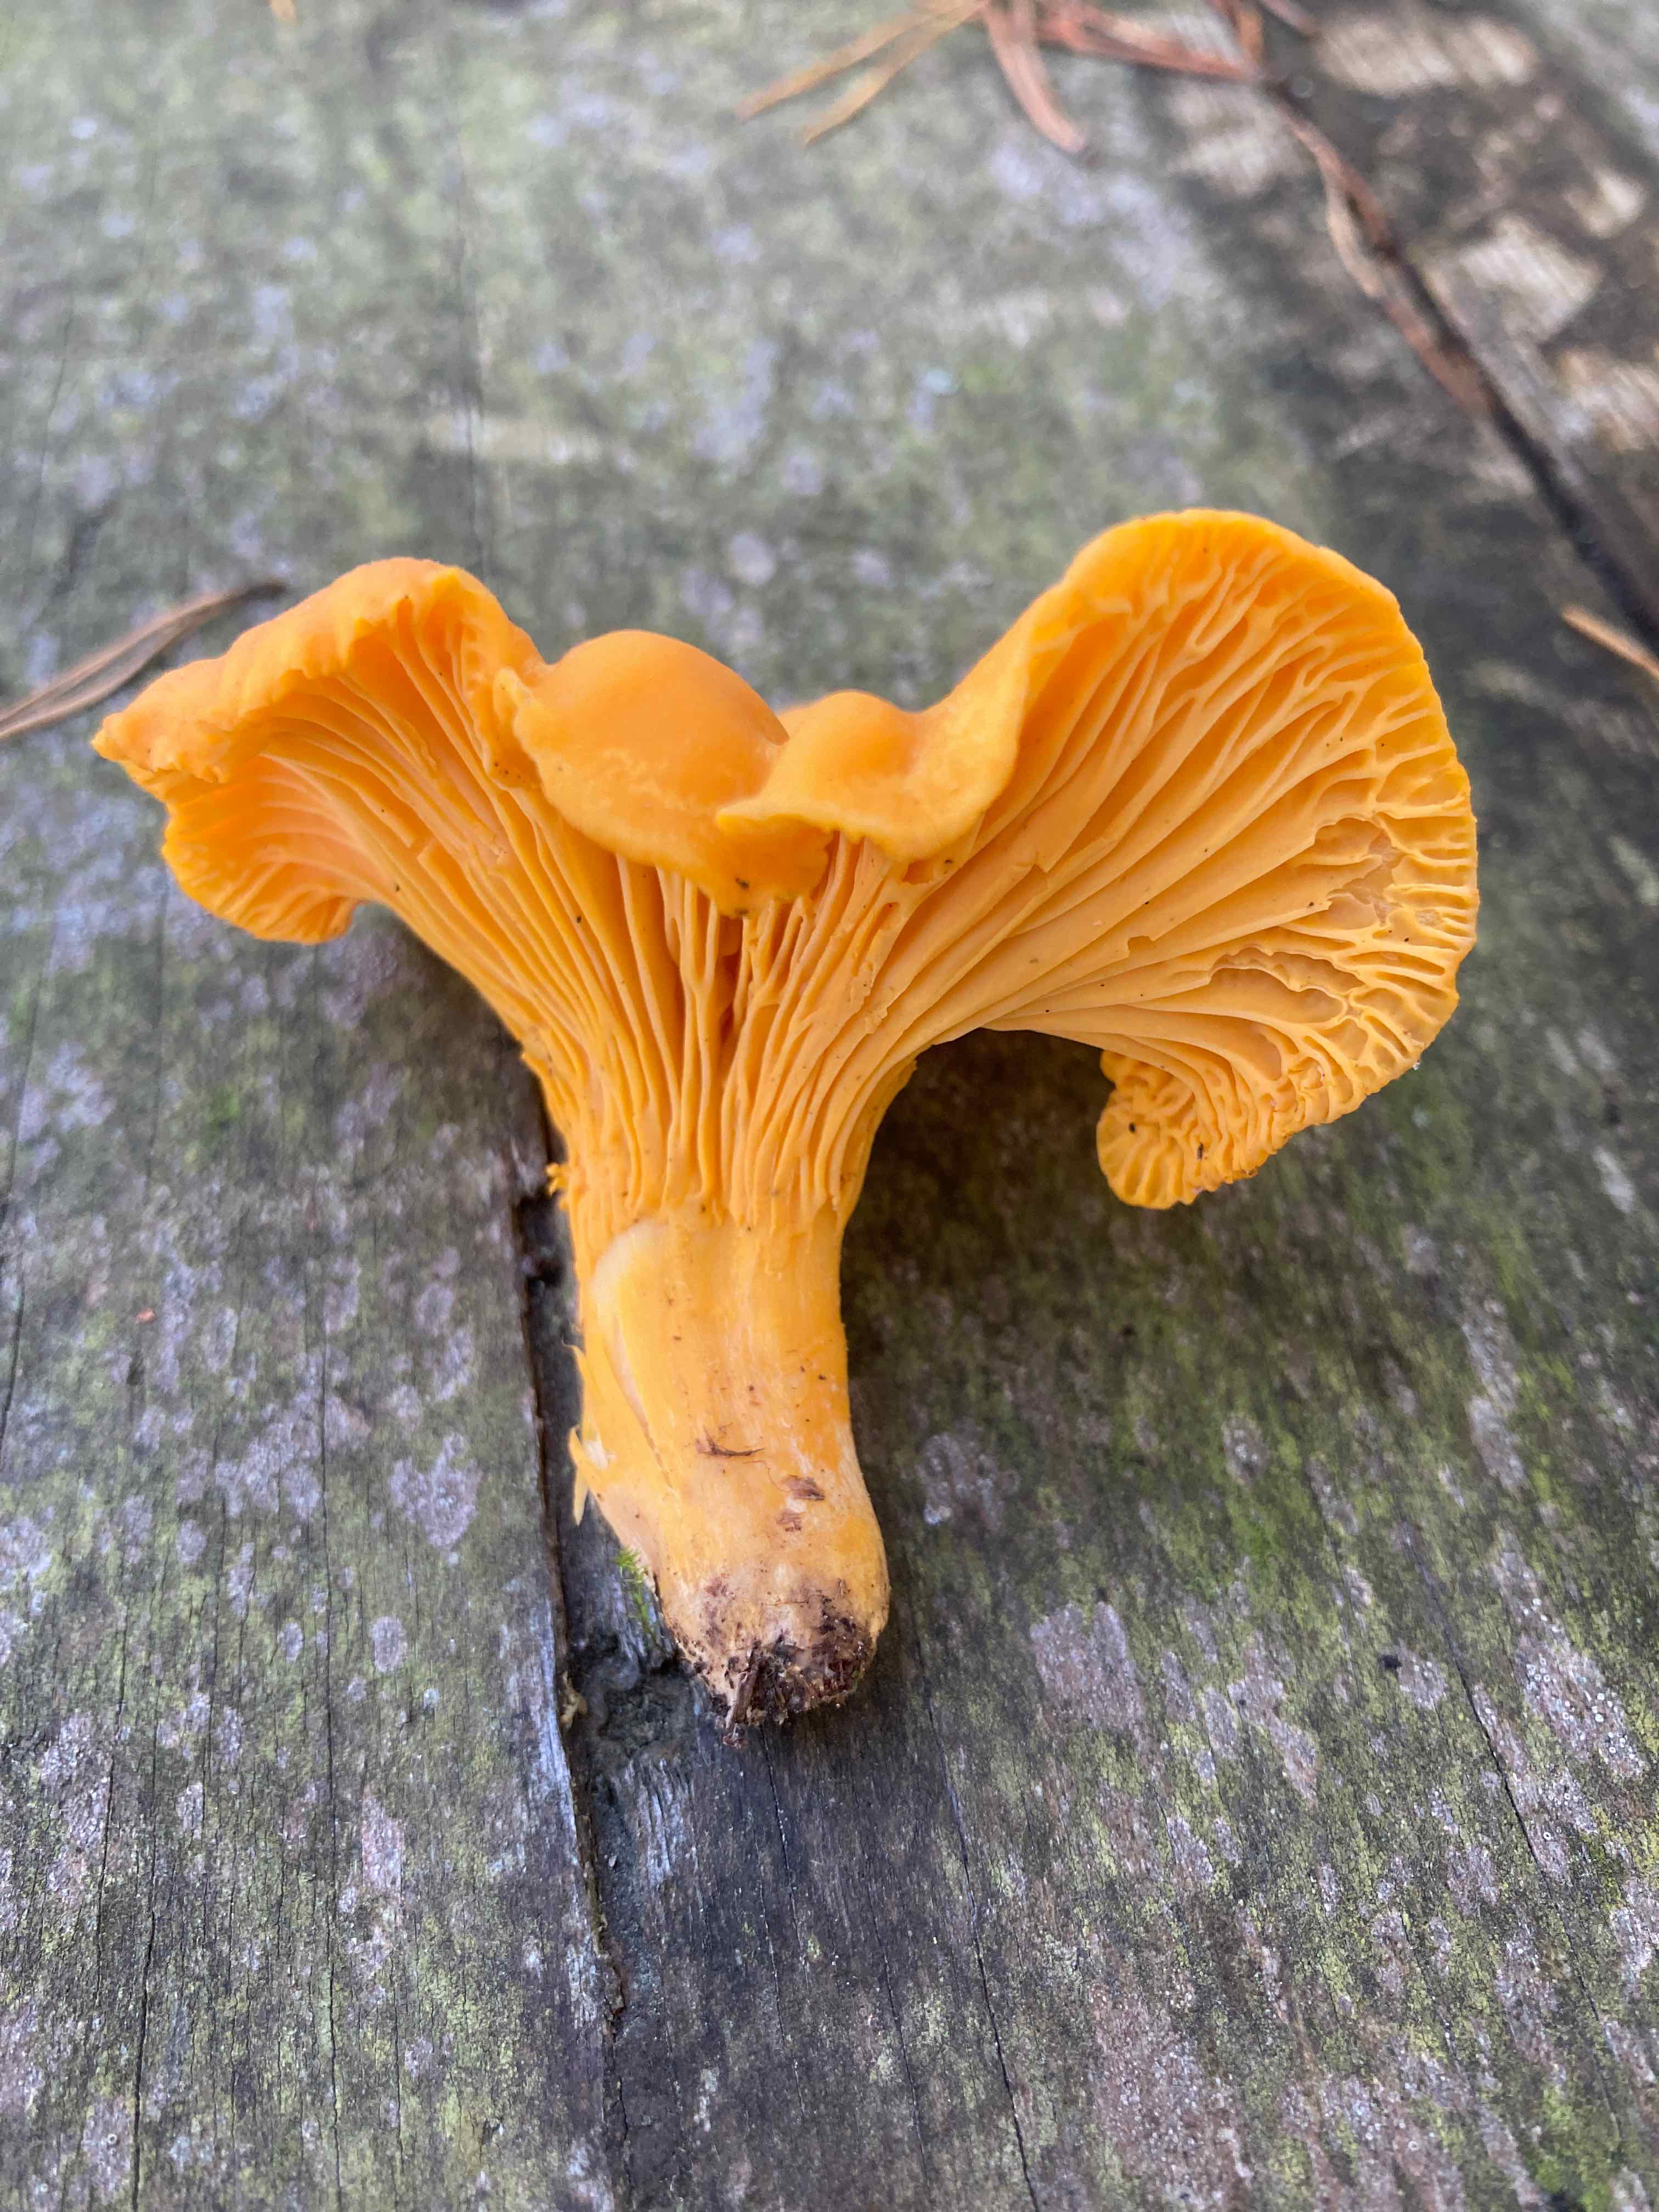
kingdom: Fungi
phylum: Basidiomycota
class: Agaricomycetes
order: Cantharellales
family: Hydnaceae
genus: Cantharellus
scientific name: Cantharellus cibarius
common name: almindelig kantarel
